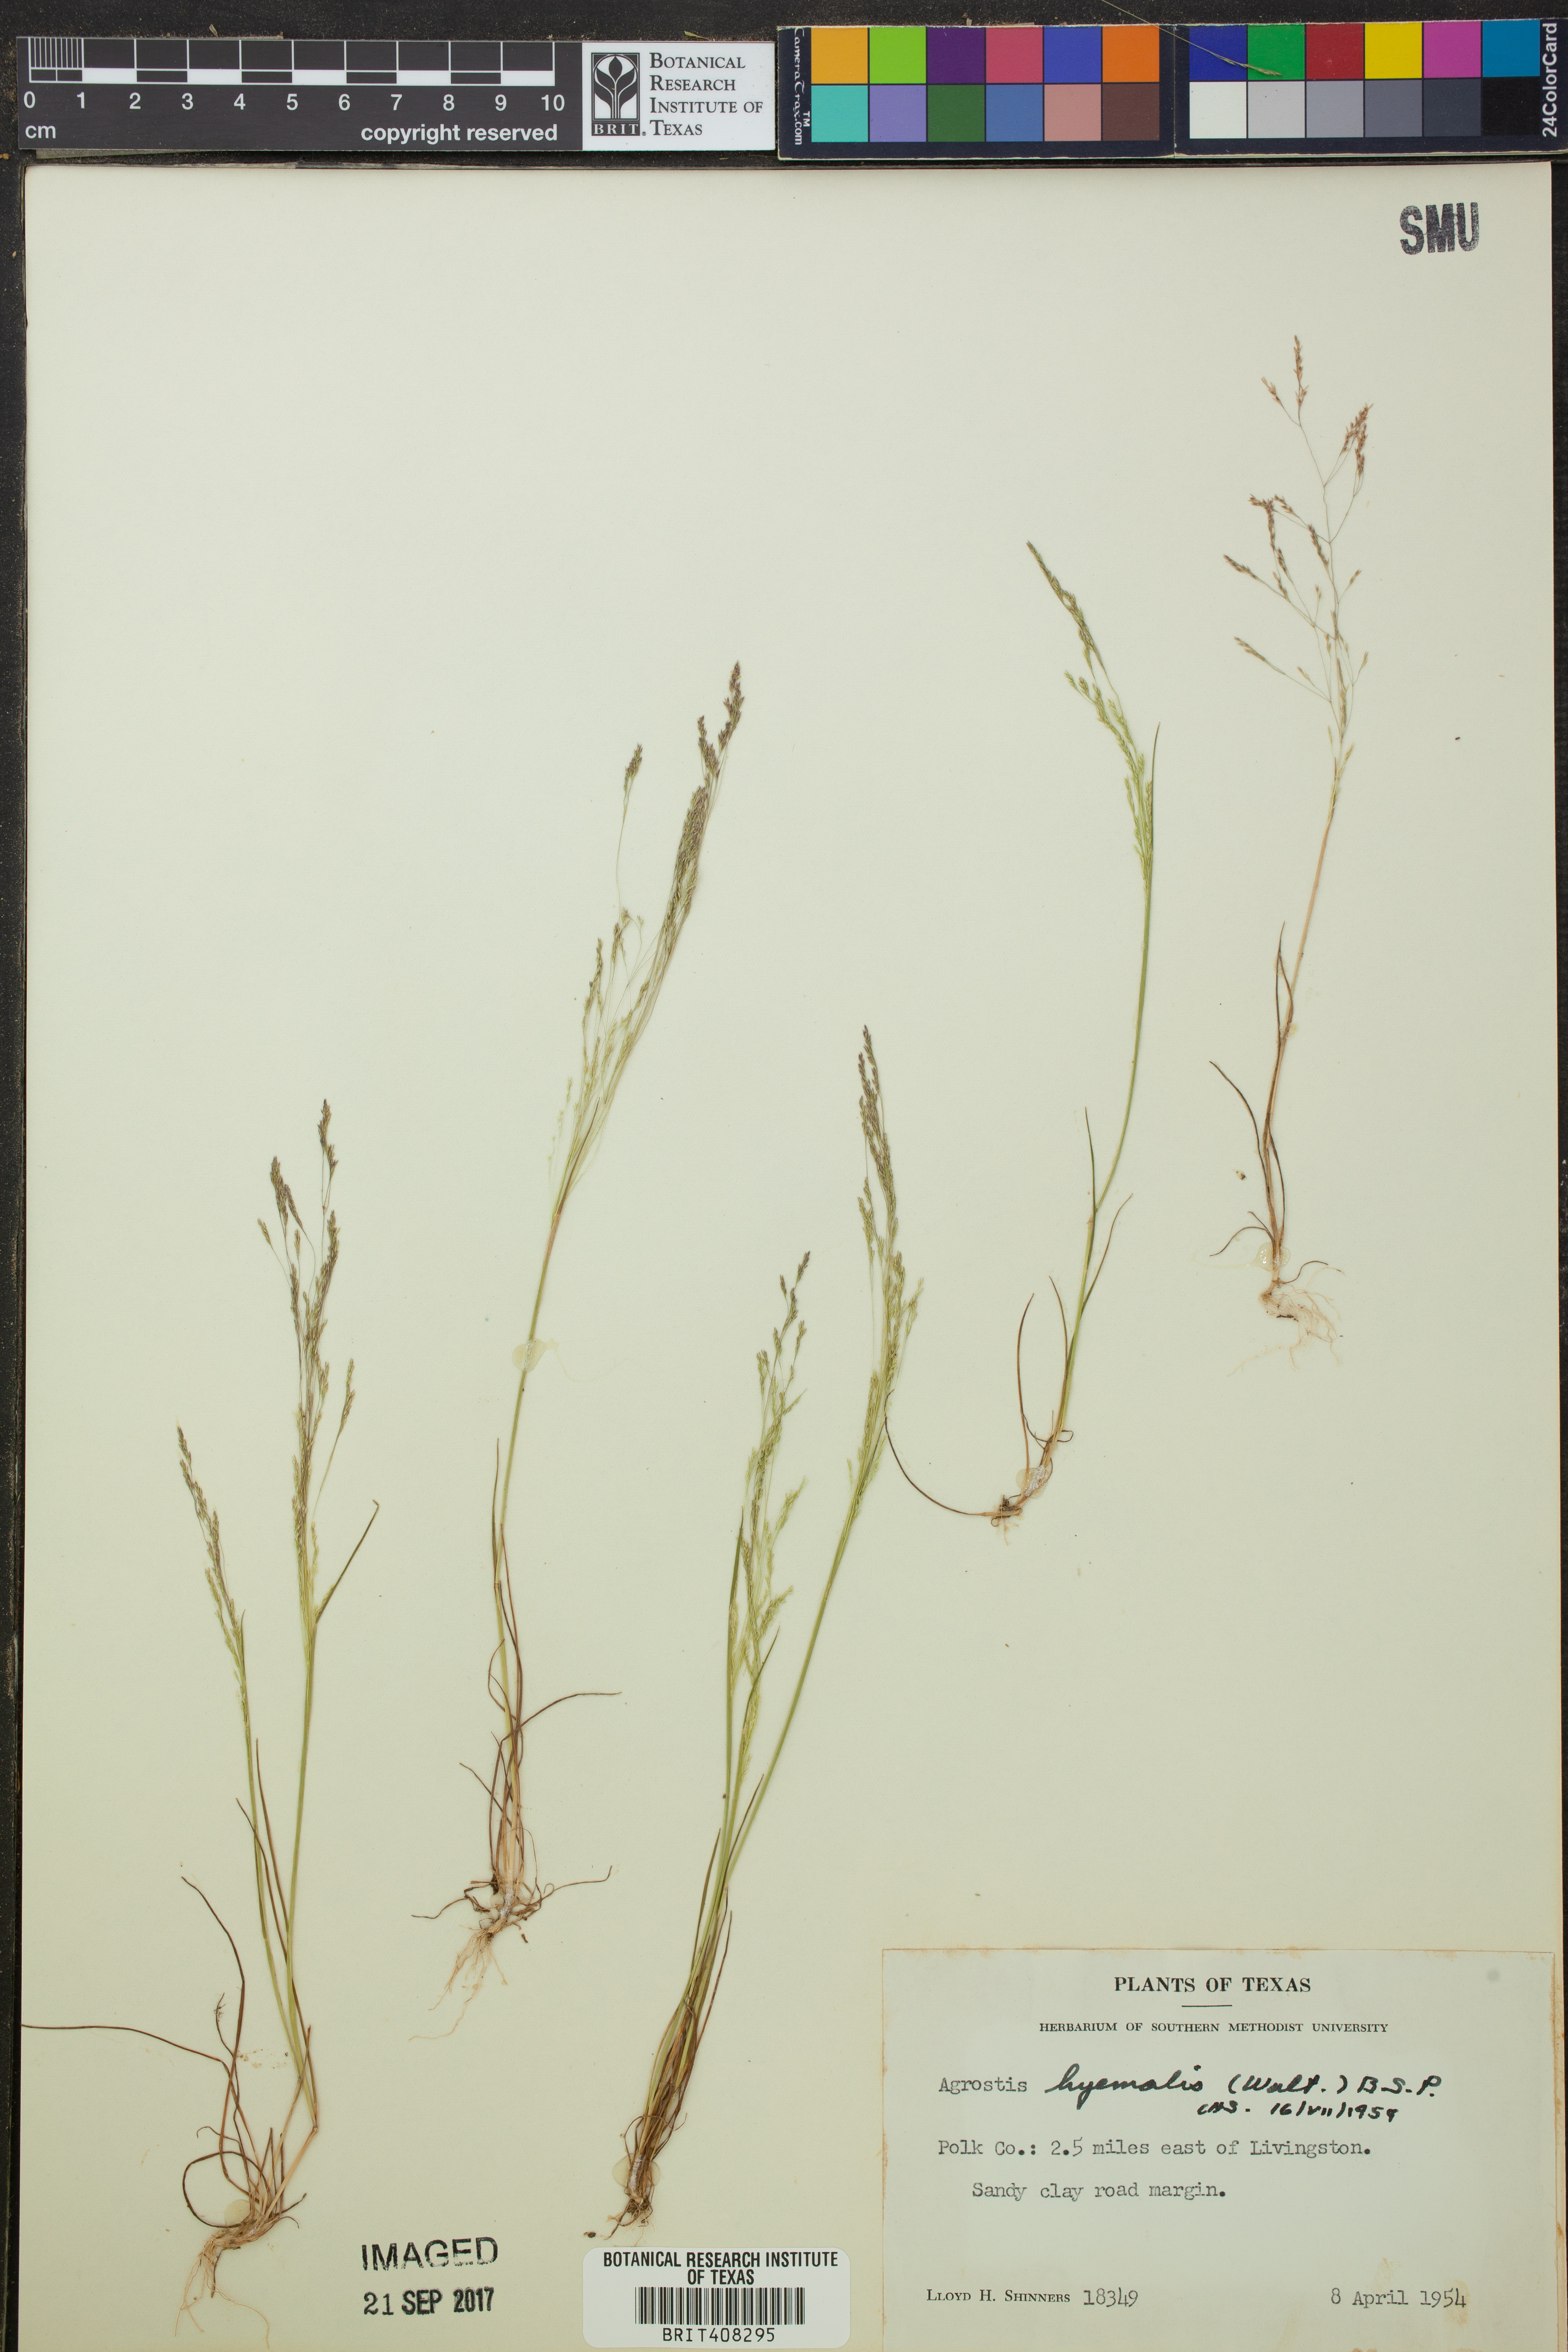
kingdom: Plantae
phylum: Tracheophyta
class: Liliopsida
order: Poales
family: Poaceae
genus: Agrostis
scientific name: Agrostis hyemalis
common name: Small bent
